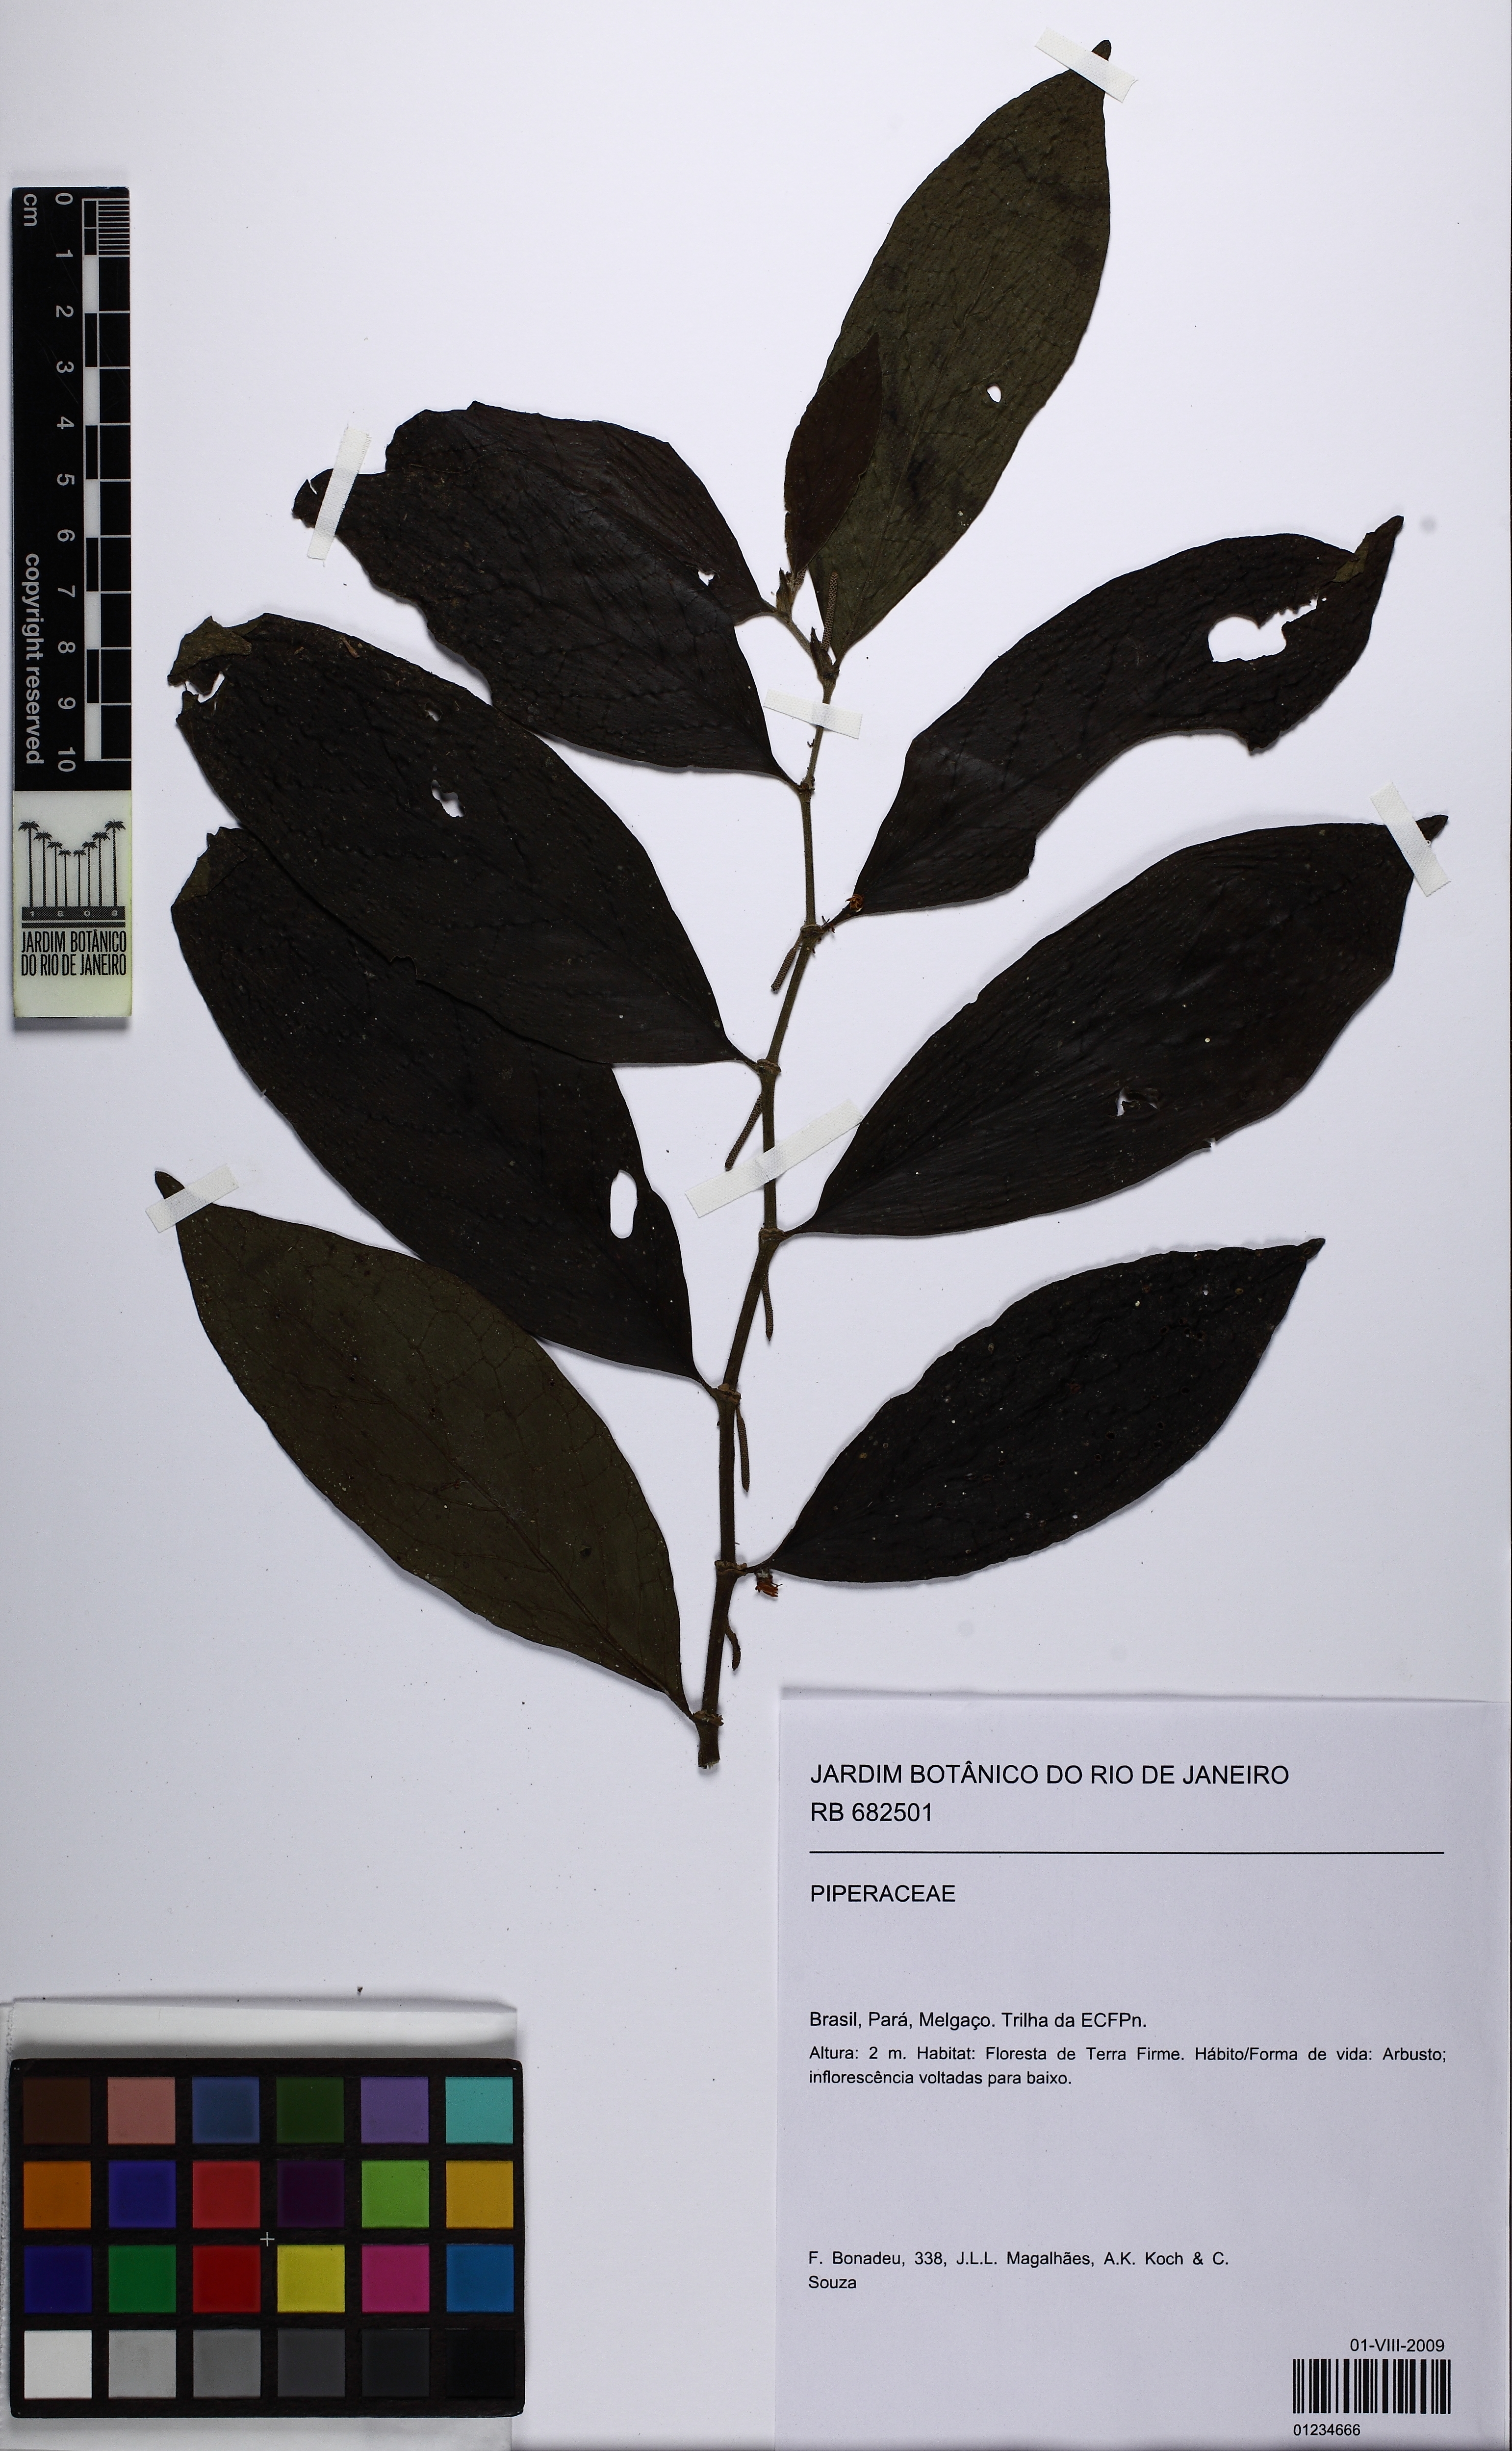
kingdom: Plantae
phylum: Tracheophyta
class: Magnoliopsida
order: Piperales
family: Piperaceae
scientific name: Piperaceae
